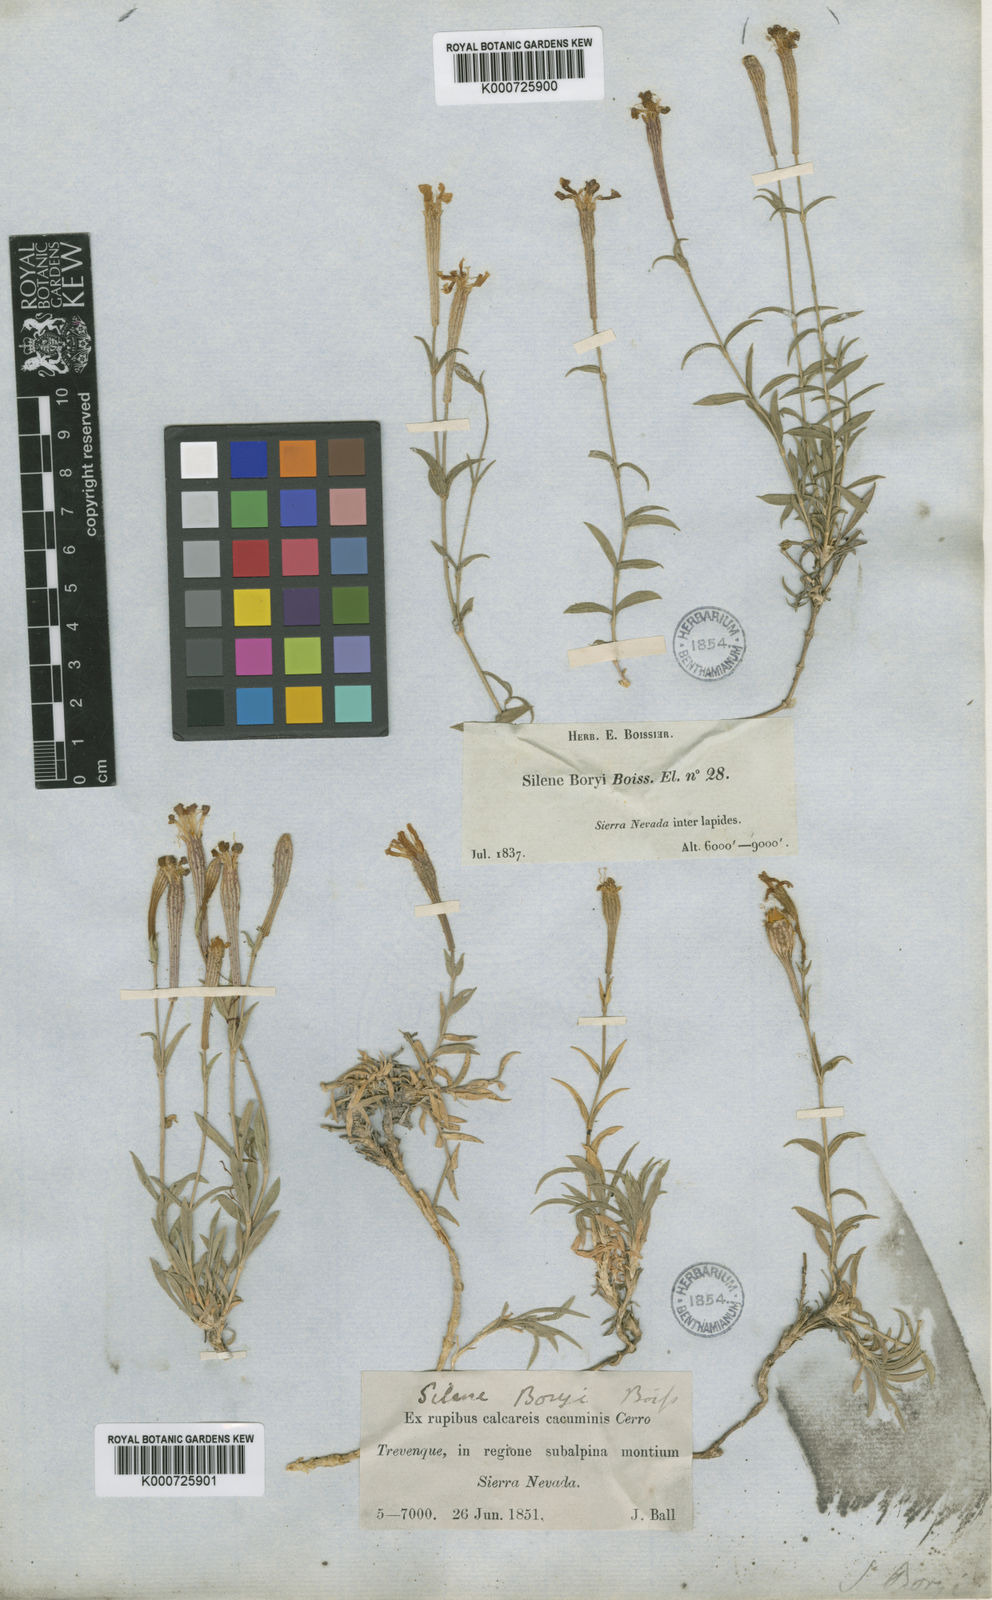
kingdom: Plantae
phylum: Tracheophyta
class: Magnoliopsida
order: Caryophyllales
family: Caryophyllaceae
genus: Silene
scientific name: Silene boryi
